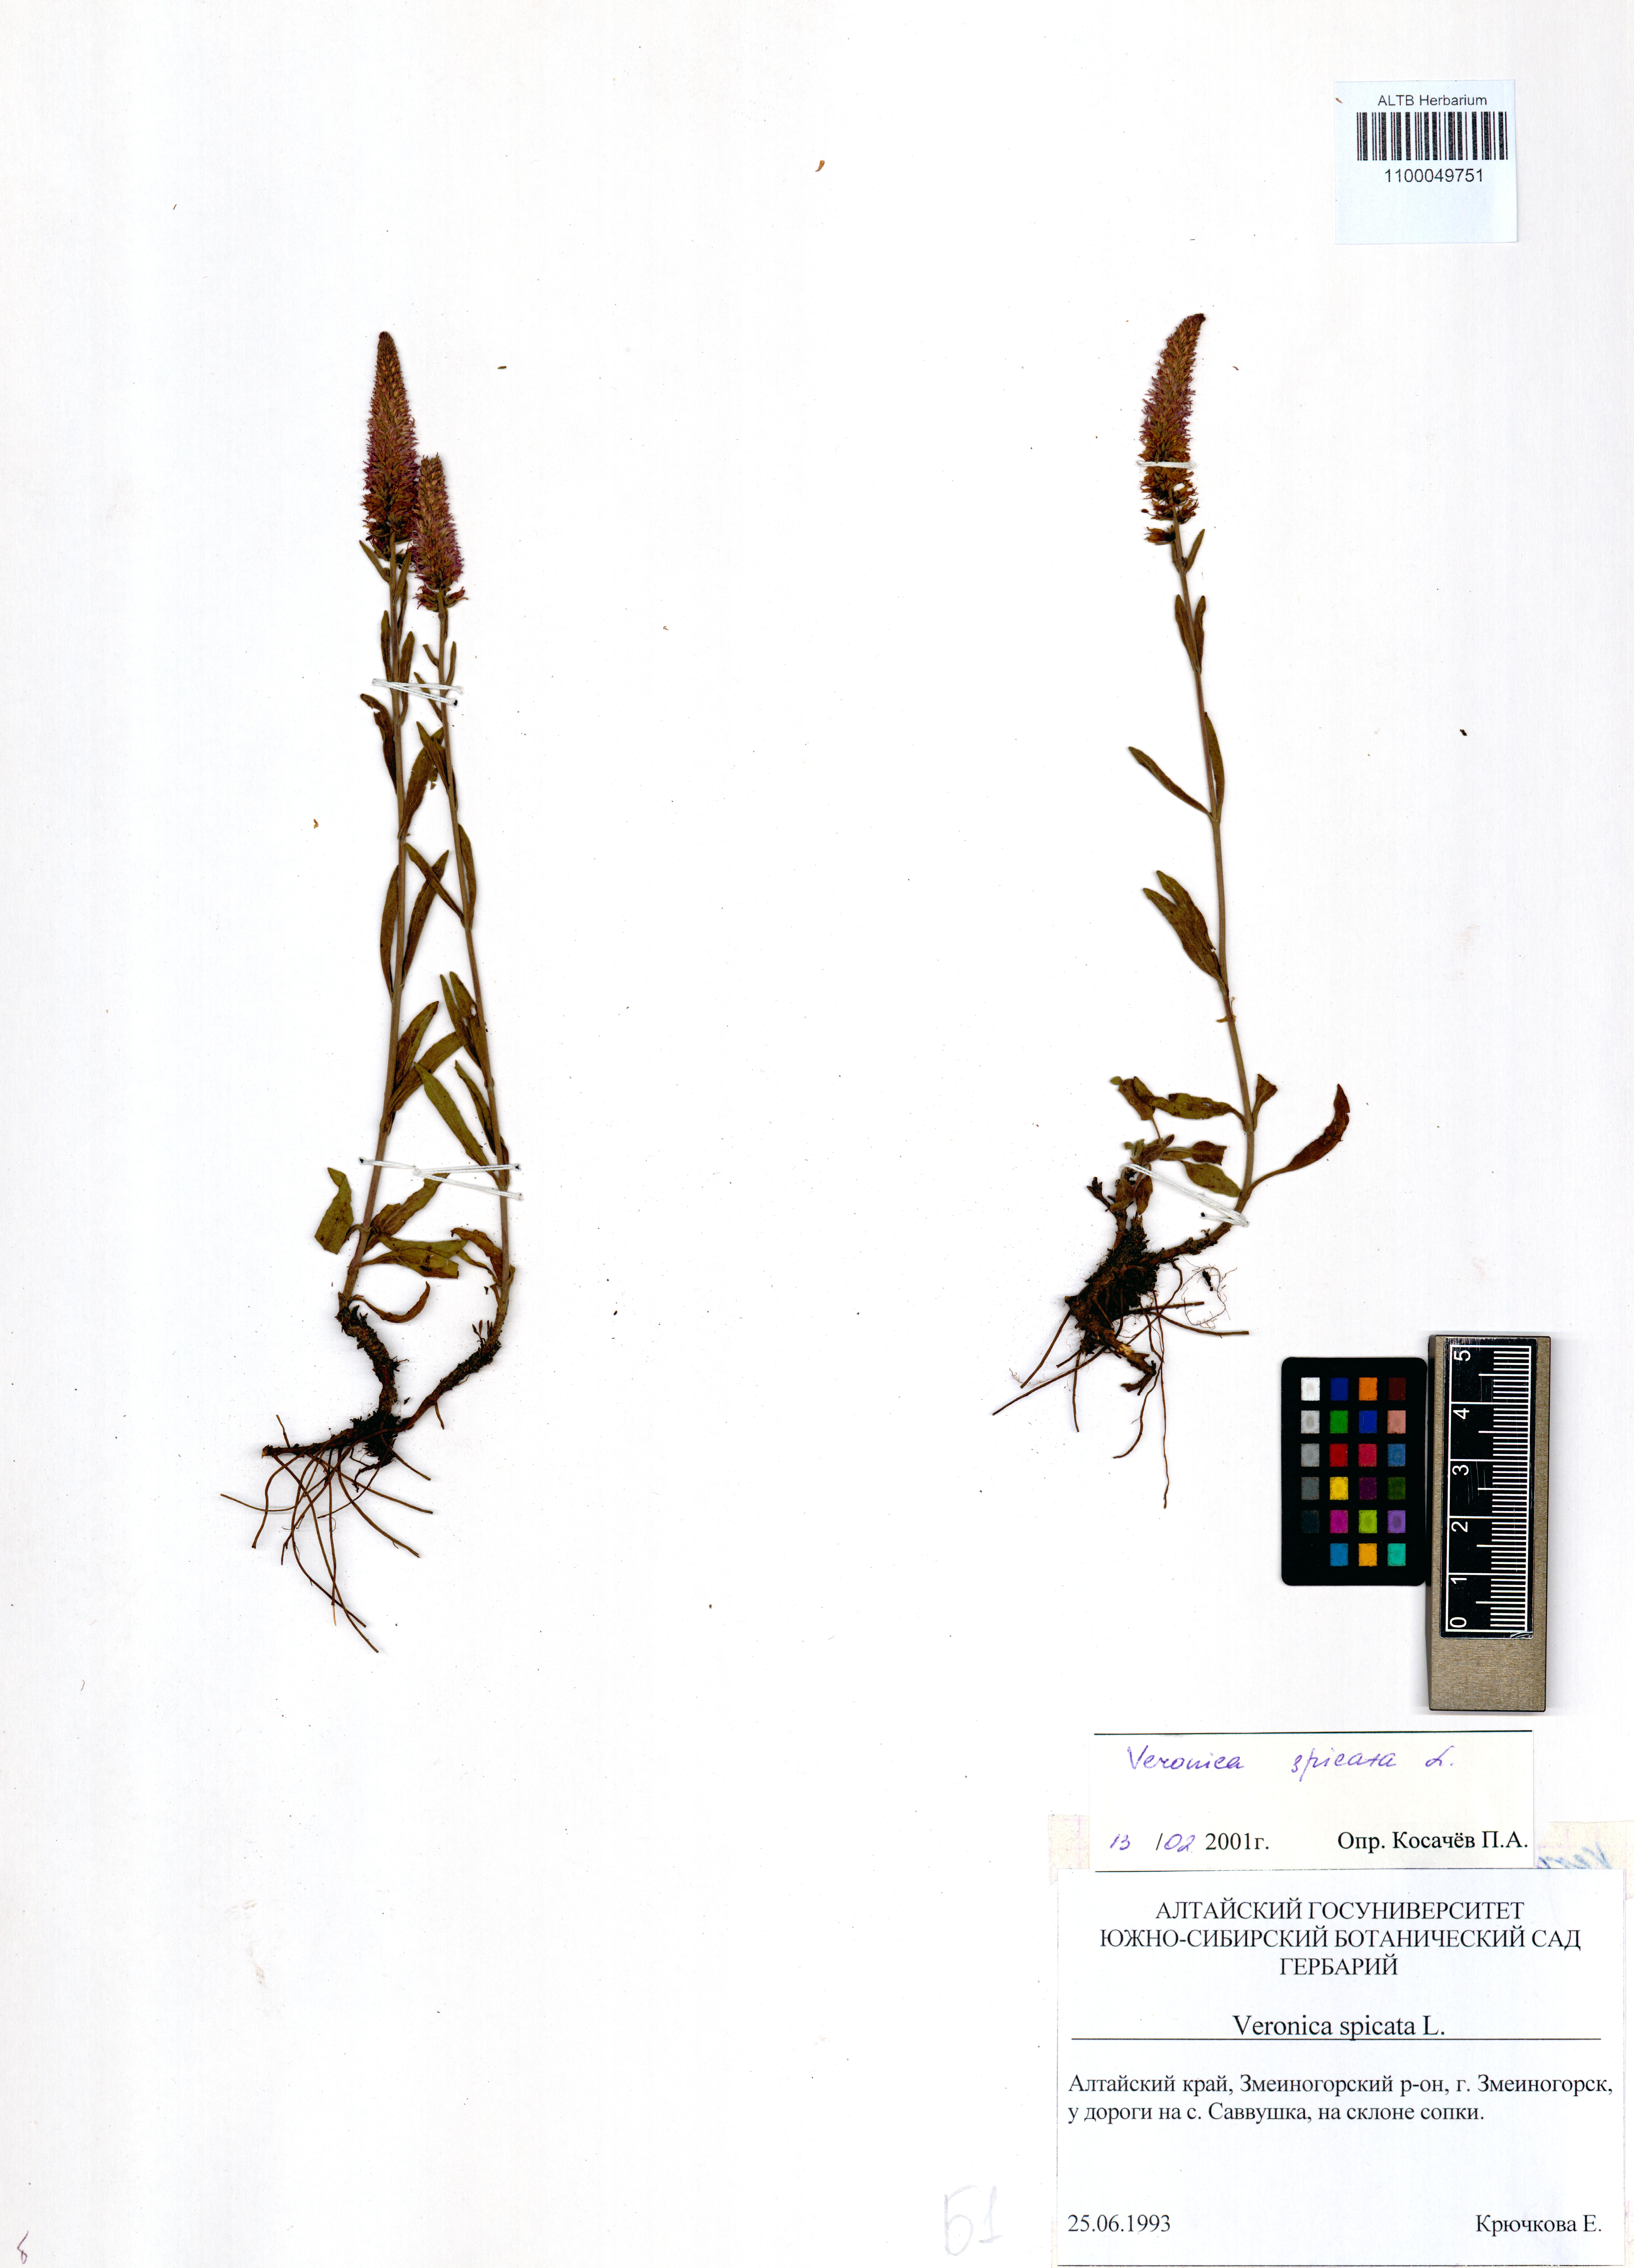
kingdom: Plantae
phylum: Tracheophyta
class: Magnoliopsida
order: Lamiales
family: Plantaginaceae
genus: Veronica
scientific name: Veronica spicata
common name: Spiked speedwell
